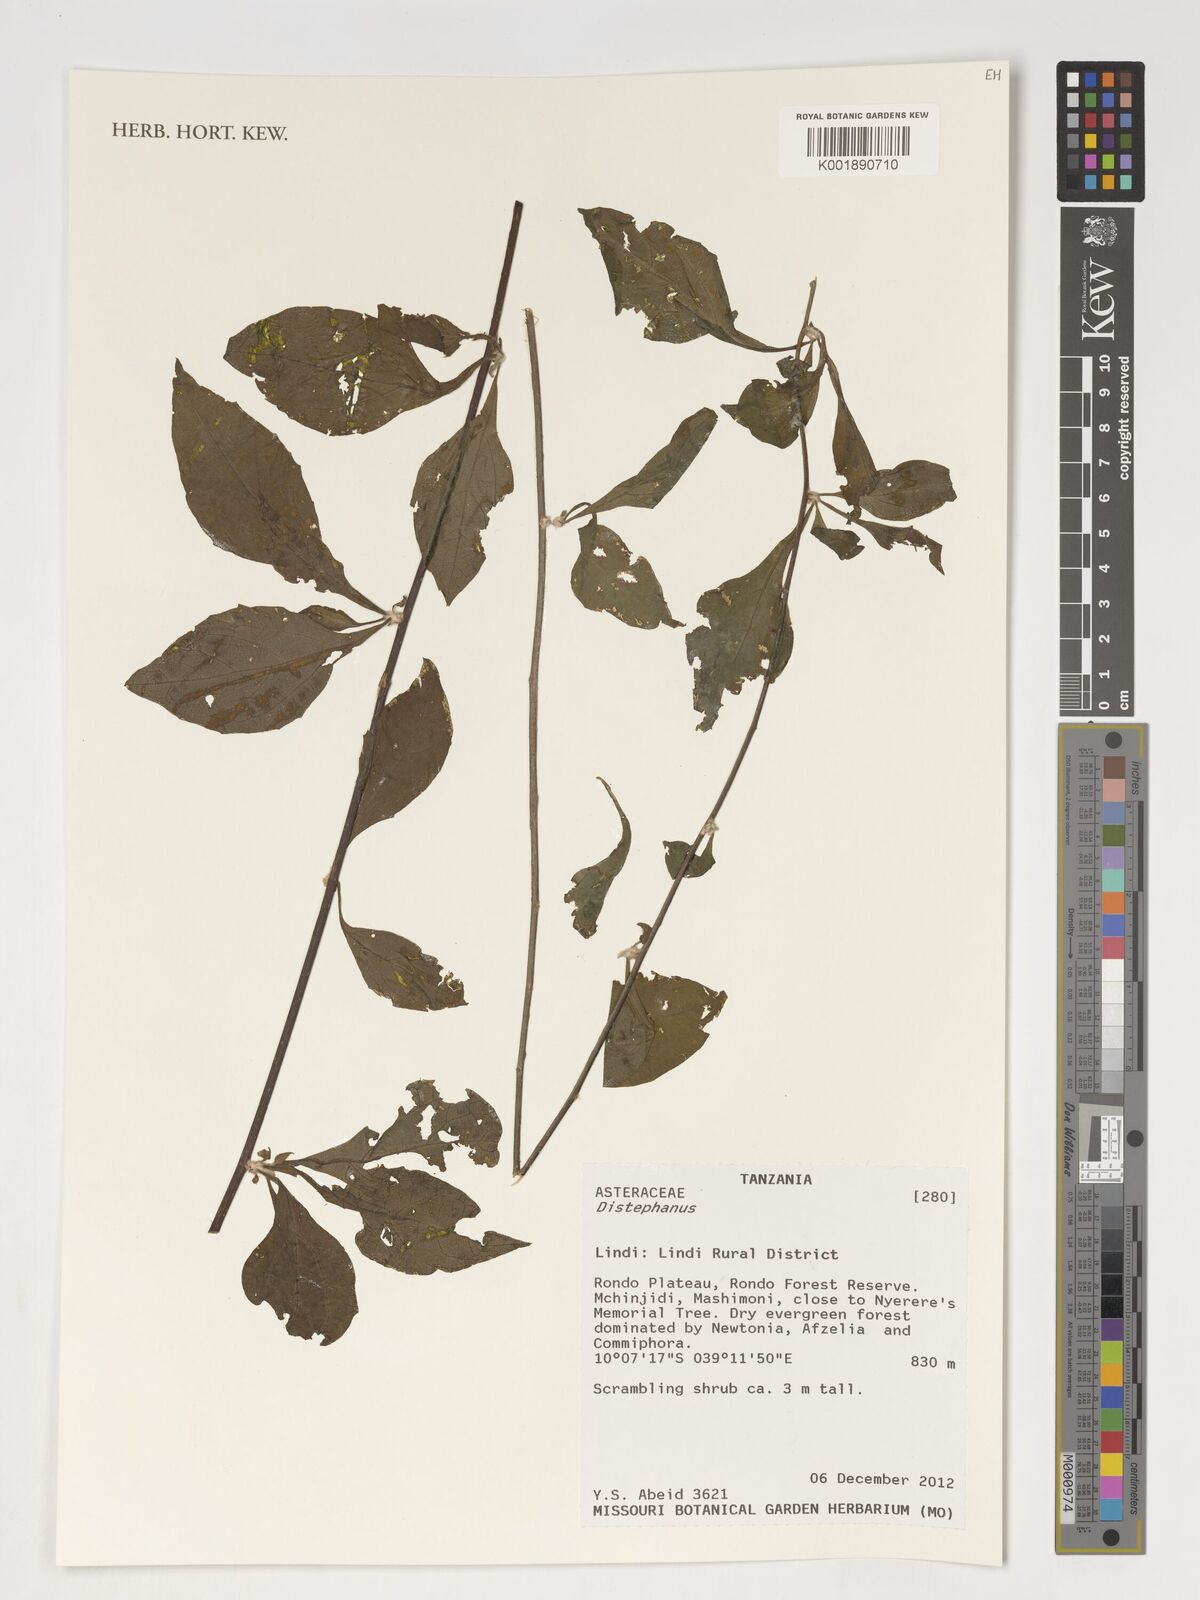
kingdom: Plantae
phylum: Tracheophyta
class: Magnoliopsida
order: Asterales
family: Asteraceae
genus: Distephanus
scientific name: Distephanus
